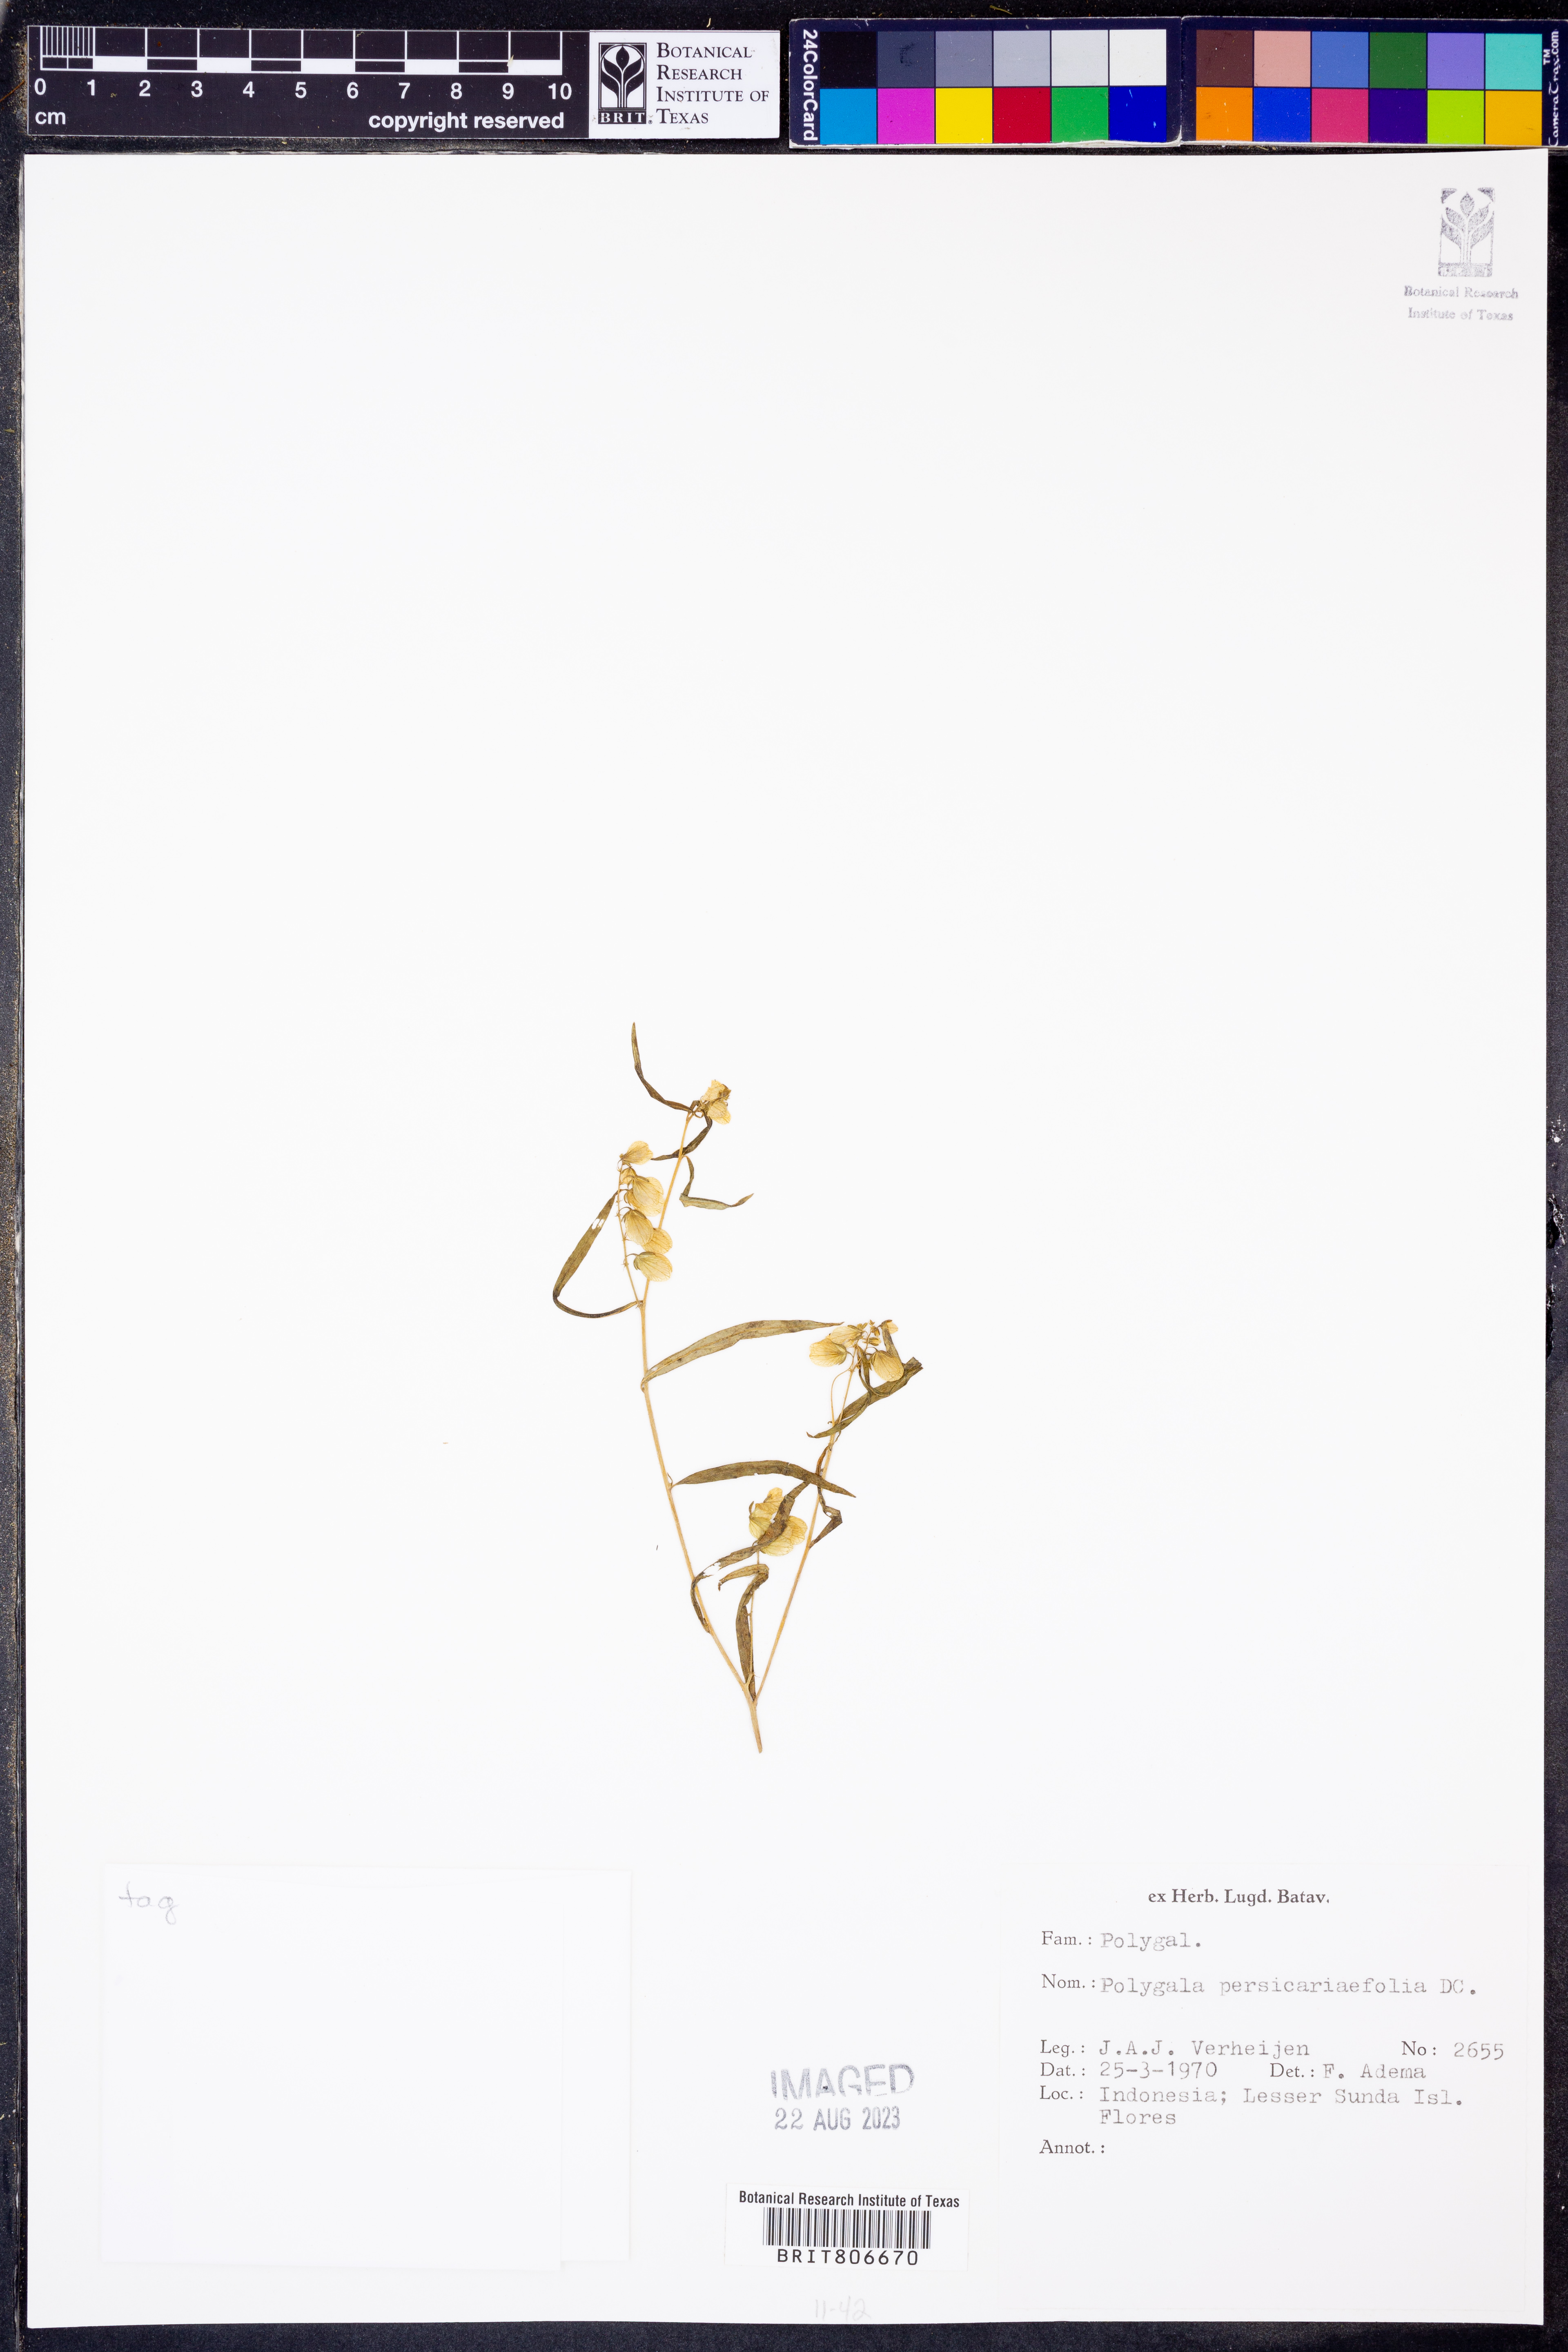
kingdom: Plantae
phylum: Tracheophyta
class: Magnoliopsida
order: Fabales
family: Polygalaceae
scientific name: Polygalaceae
